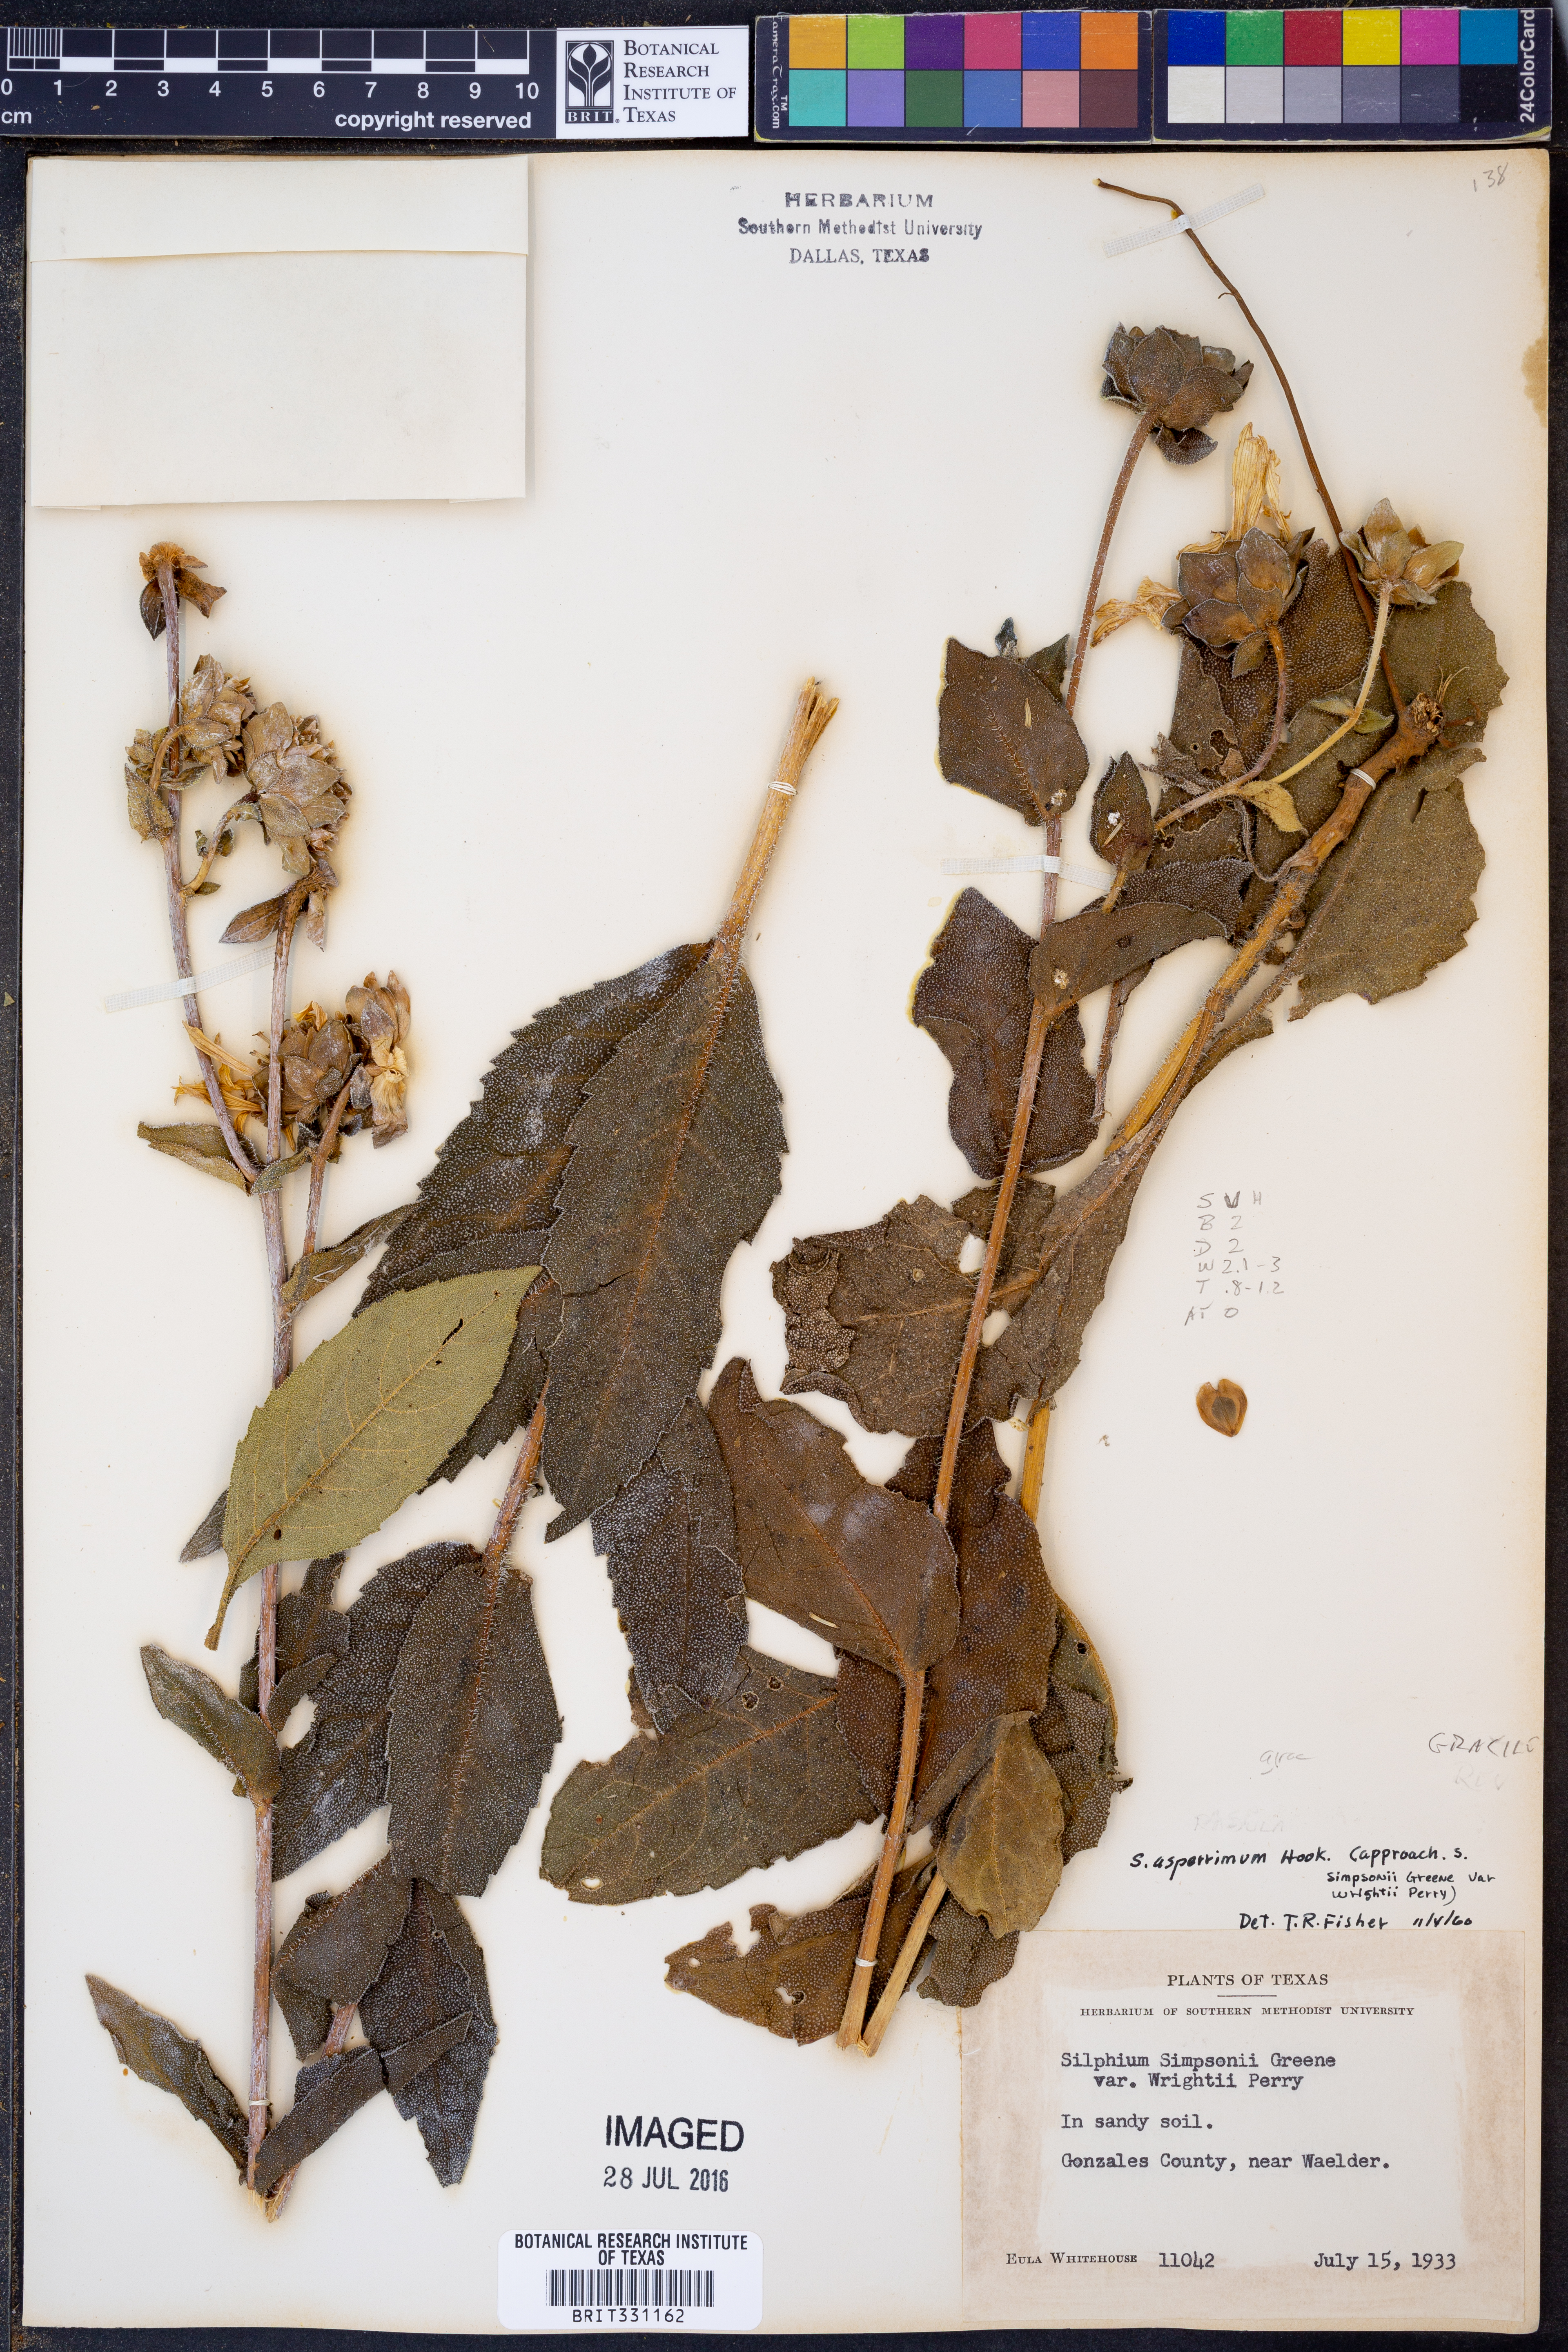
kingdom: Plantae
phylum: Tracheophyta
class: Magnoliopsida
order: Asterales
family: Asteraceae
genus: Silphium
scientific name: Silphium asperrimum
